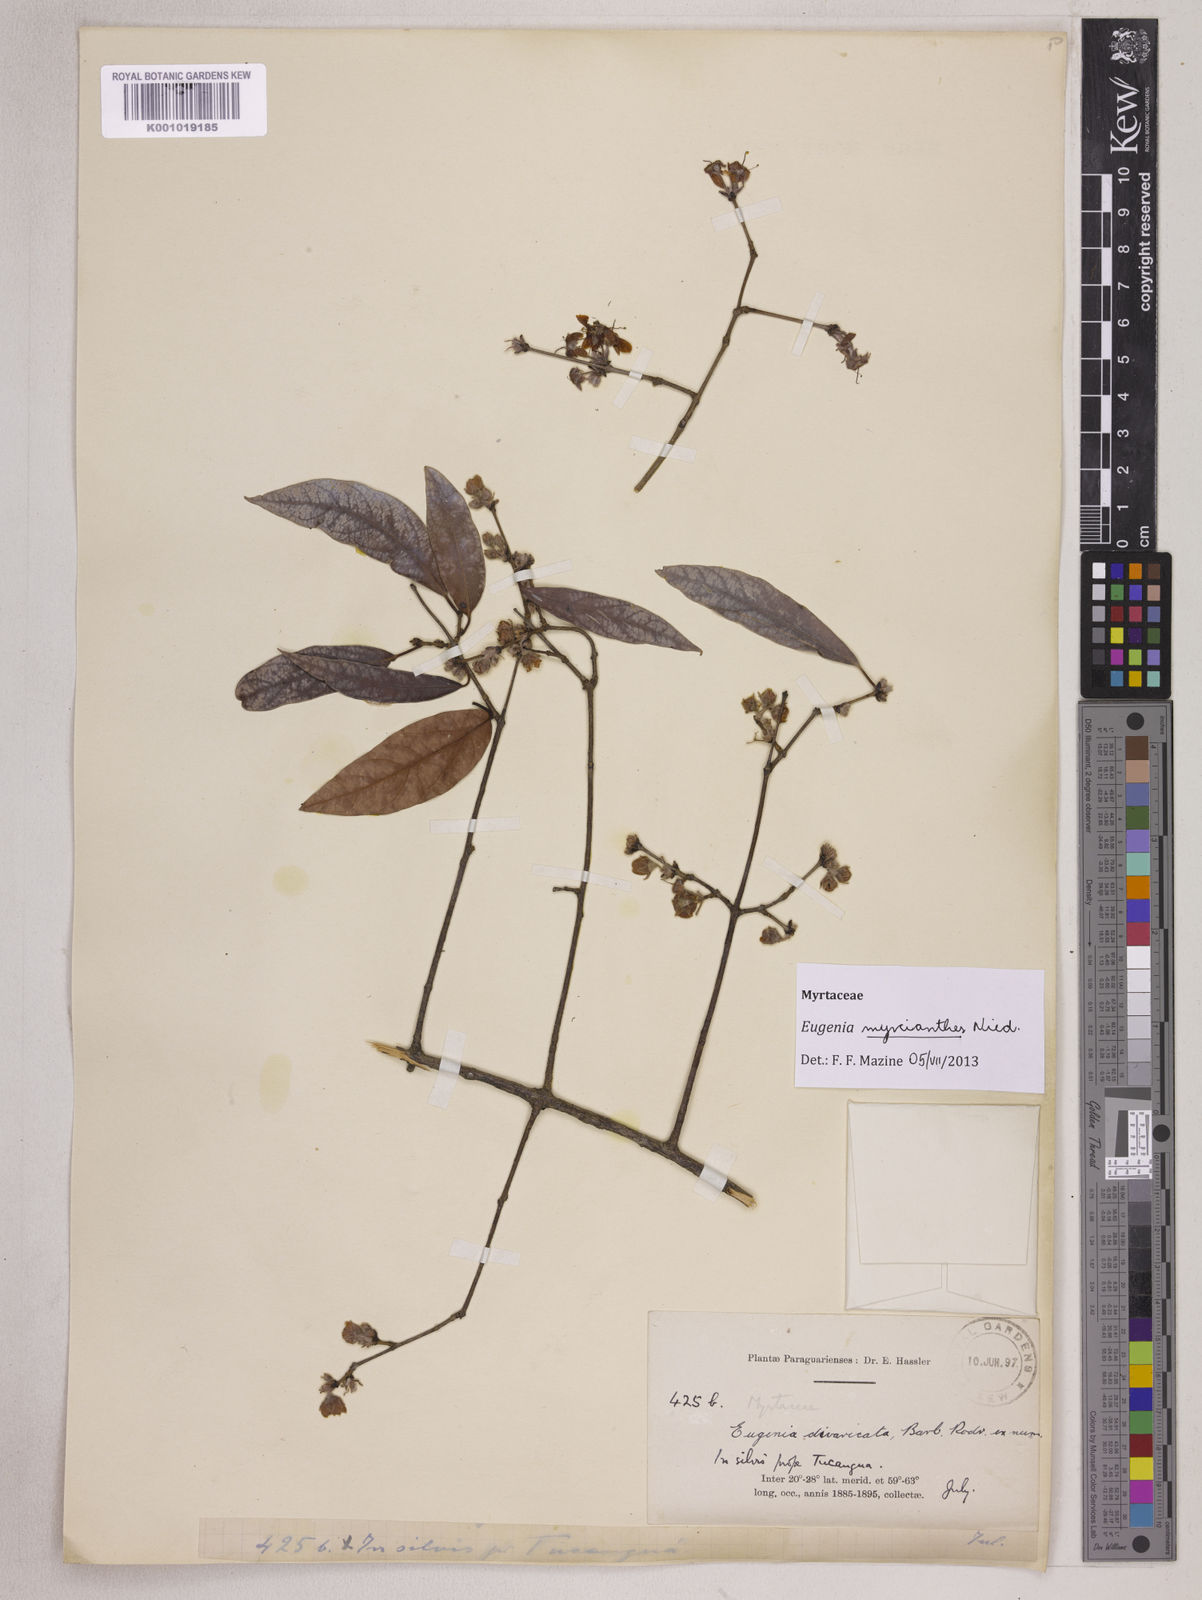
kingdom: Plantae
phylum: Tracheophyta
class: Magnoliopsida
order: Myrtales
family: Myrtaceae
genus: Eugenia
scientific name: Eugenia myrcianthes
